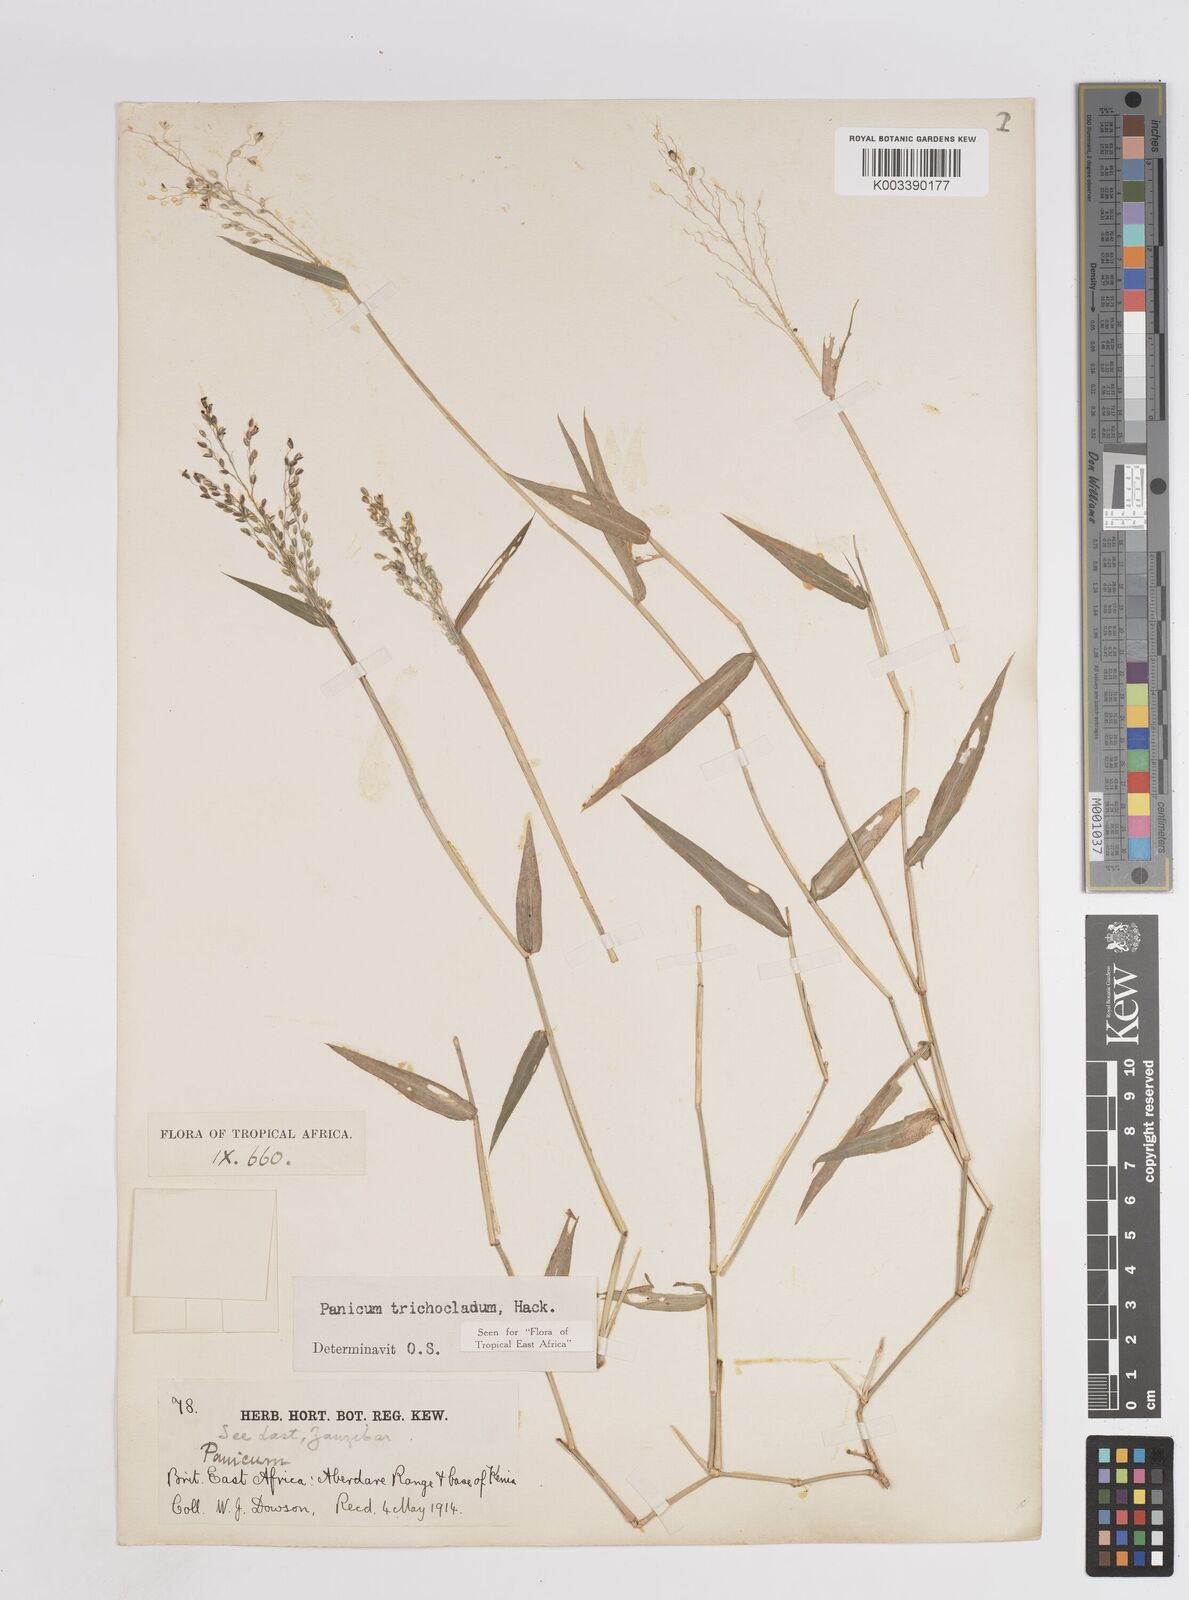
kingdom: Plantae
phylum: Tracheophyta
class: Liliopsida
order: Poales
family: Poaceae
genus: Panicum
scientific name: Panicum trichocladum
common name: Donkey grass
